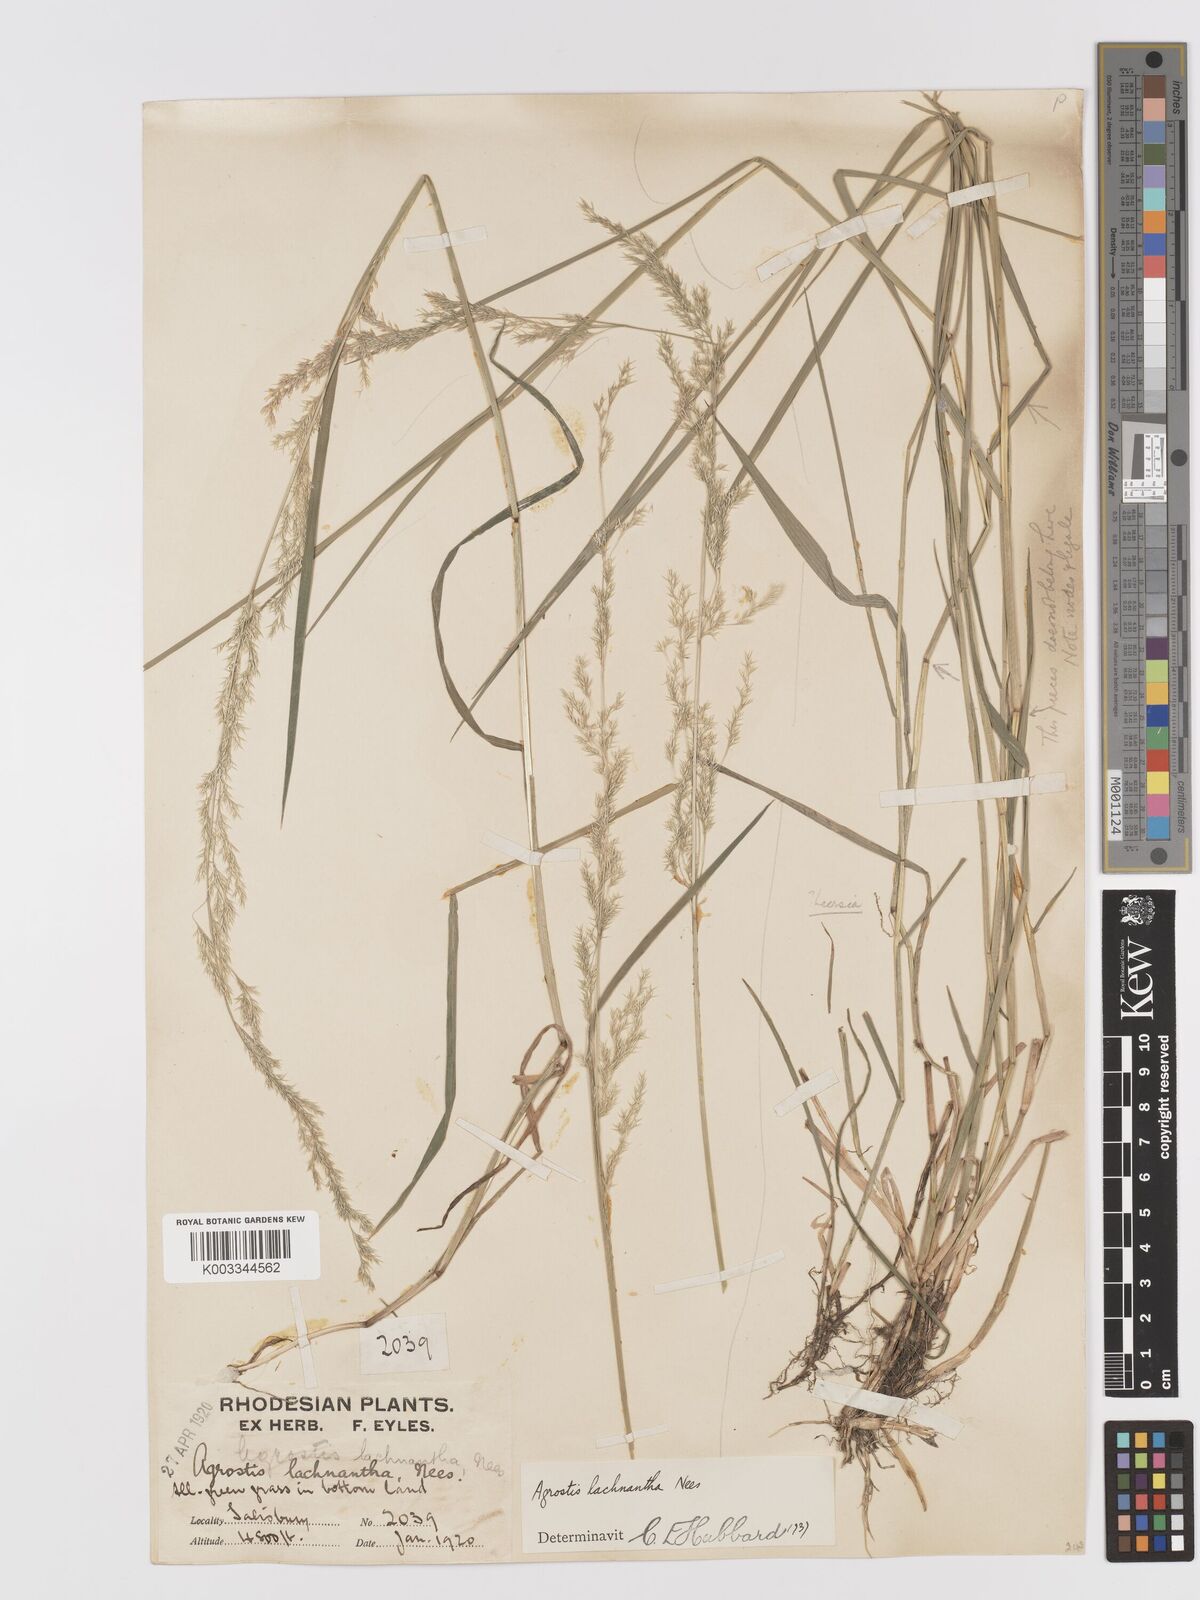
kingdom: Plantae
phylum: Tracheophyta
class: Liliopsida
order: Poales
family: Poaceae
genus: Lachnagrostis
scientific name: Lachnagrostis lachnantha
